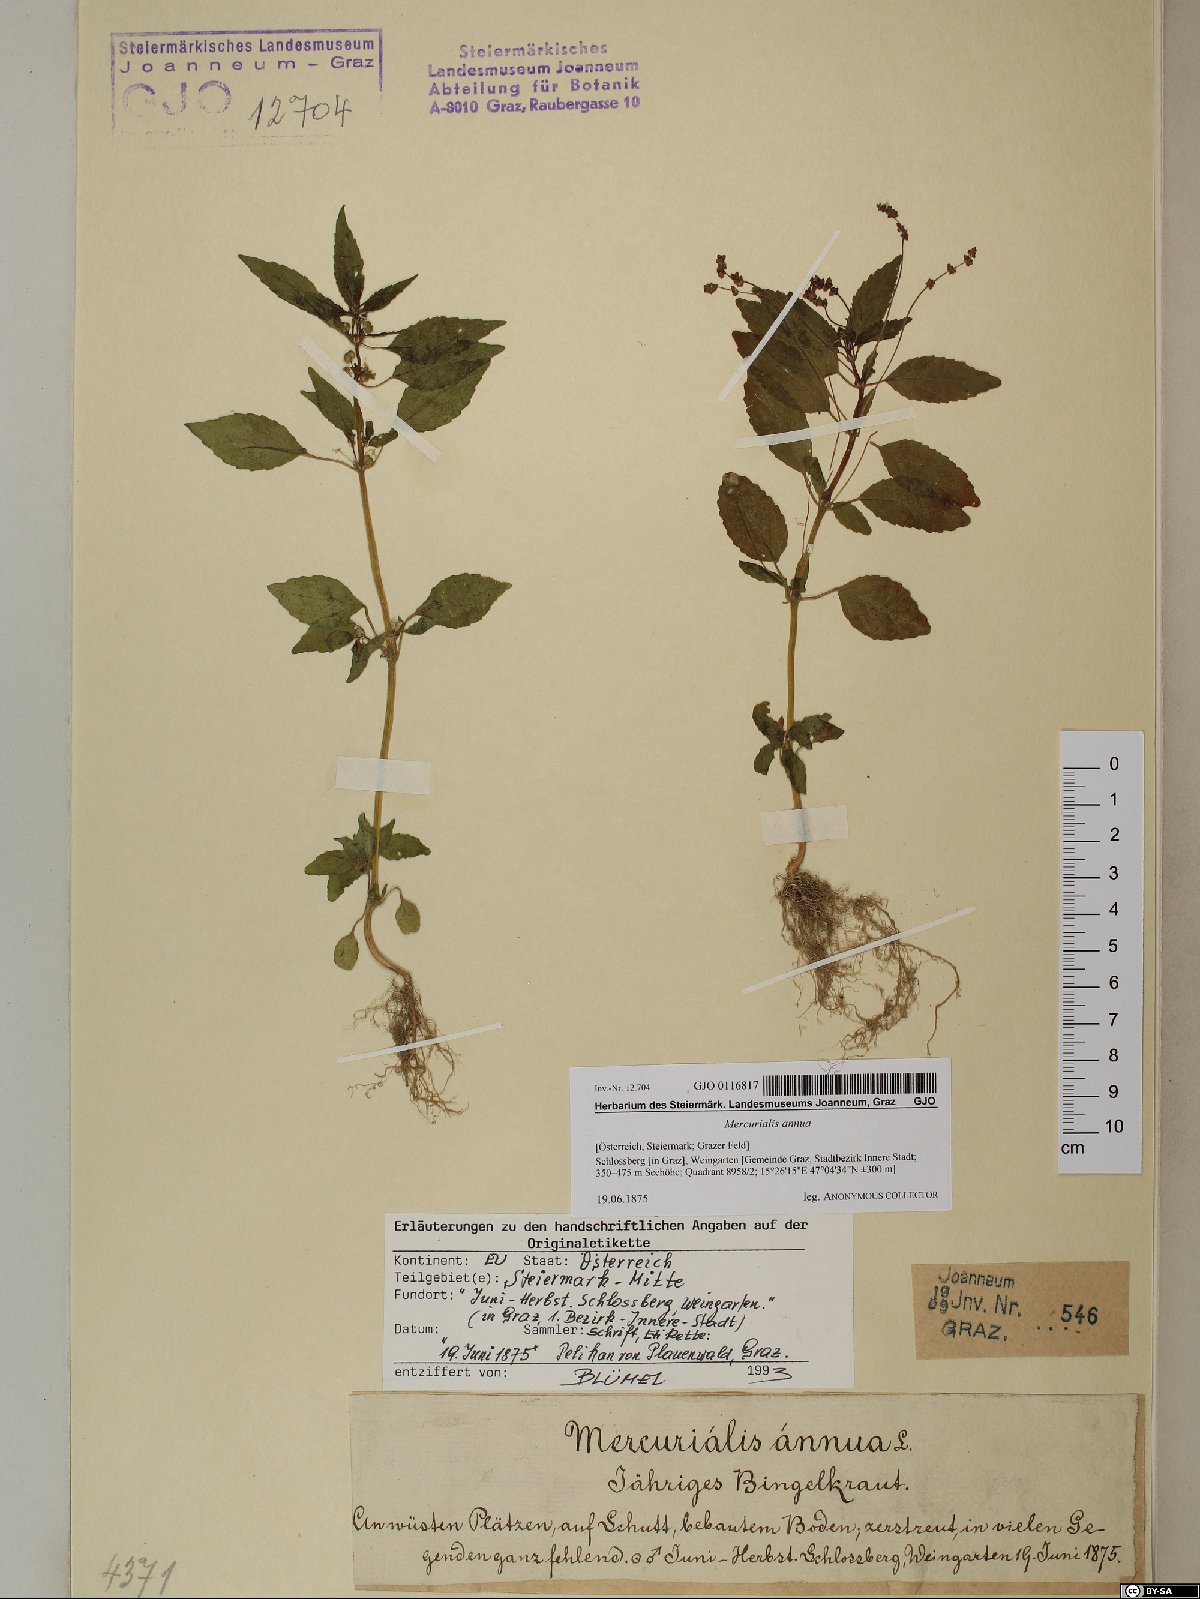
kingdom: Plantae
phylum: Tracheophyta
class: Magnoliopsida
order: Malpighiales
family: Euphorbiaceae
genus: Mercurialis
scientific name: Mercurialis annua
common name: Annual mercury
